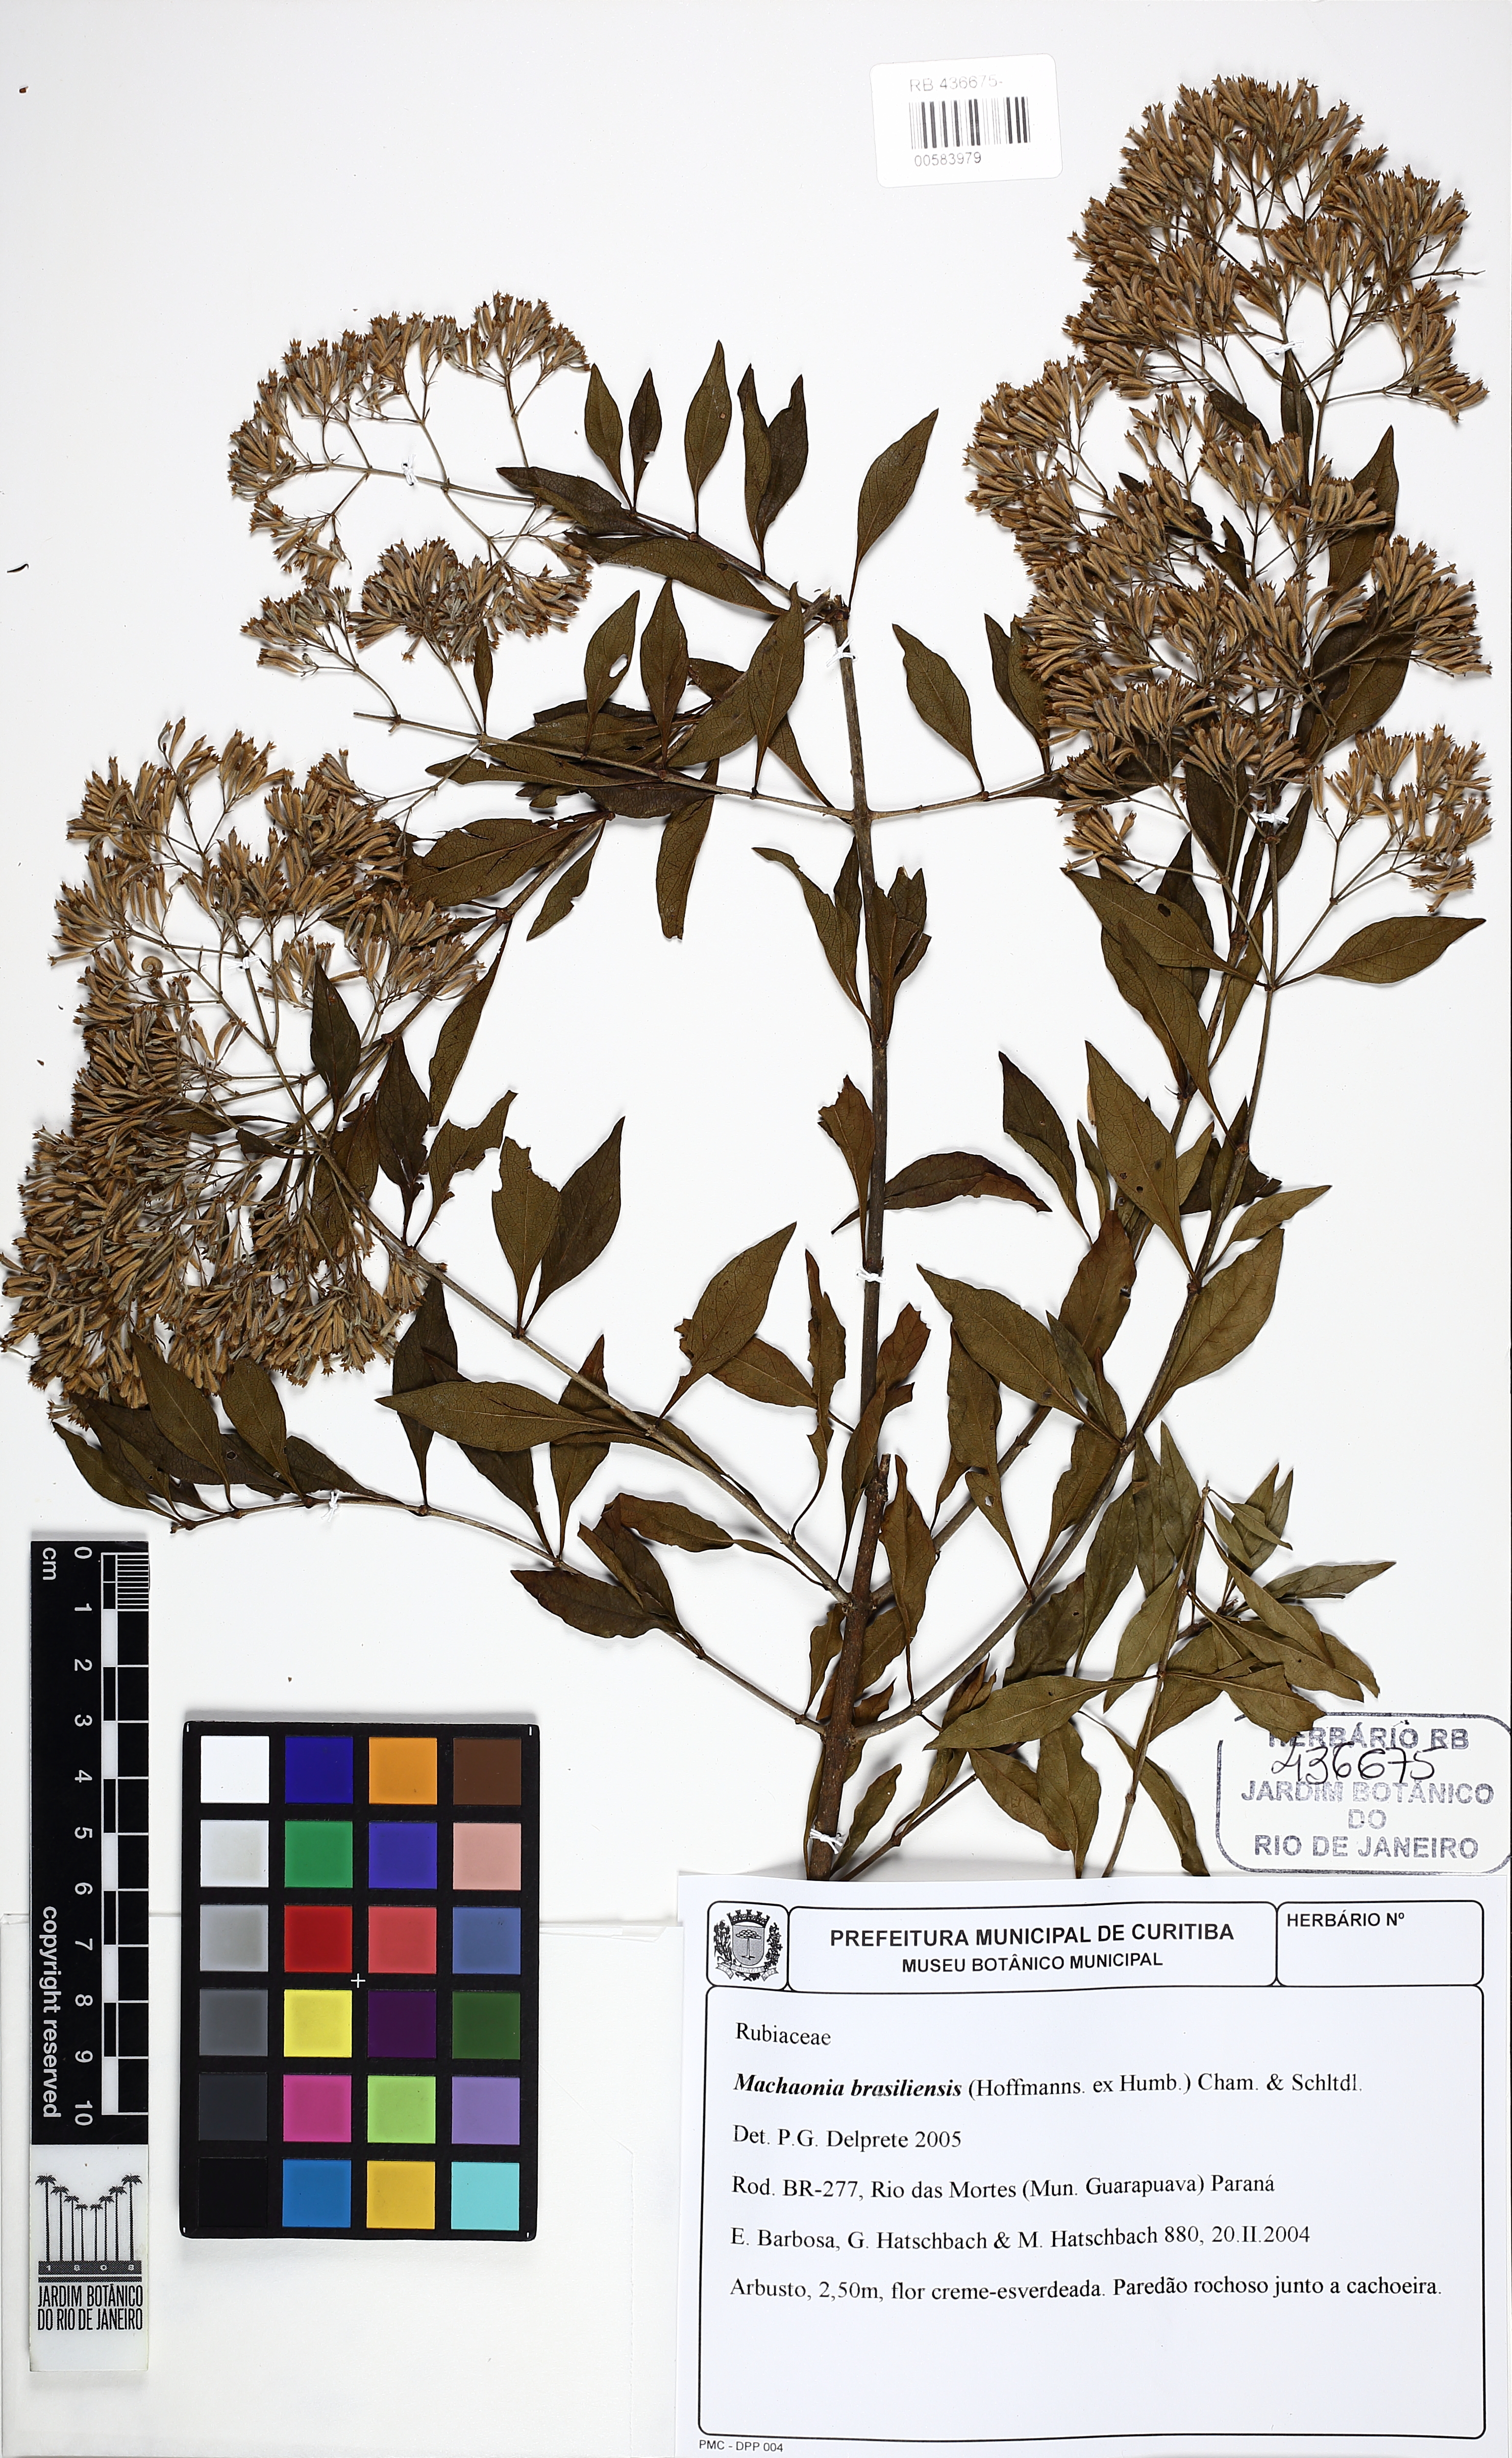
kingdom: Plantae
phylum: Tracheophyta
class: Magnoliopsida
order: Gentianales
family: Rubiaceae
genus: Machaonia
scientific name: Machaonia brasiliensis
